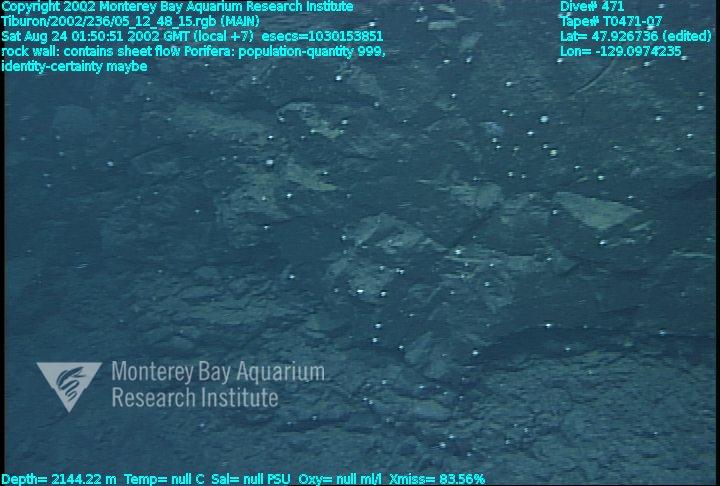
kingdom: Animalia
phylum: Porifera
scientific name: Porifera
